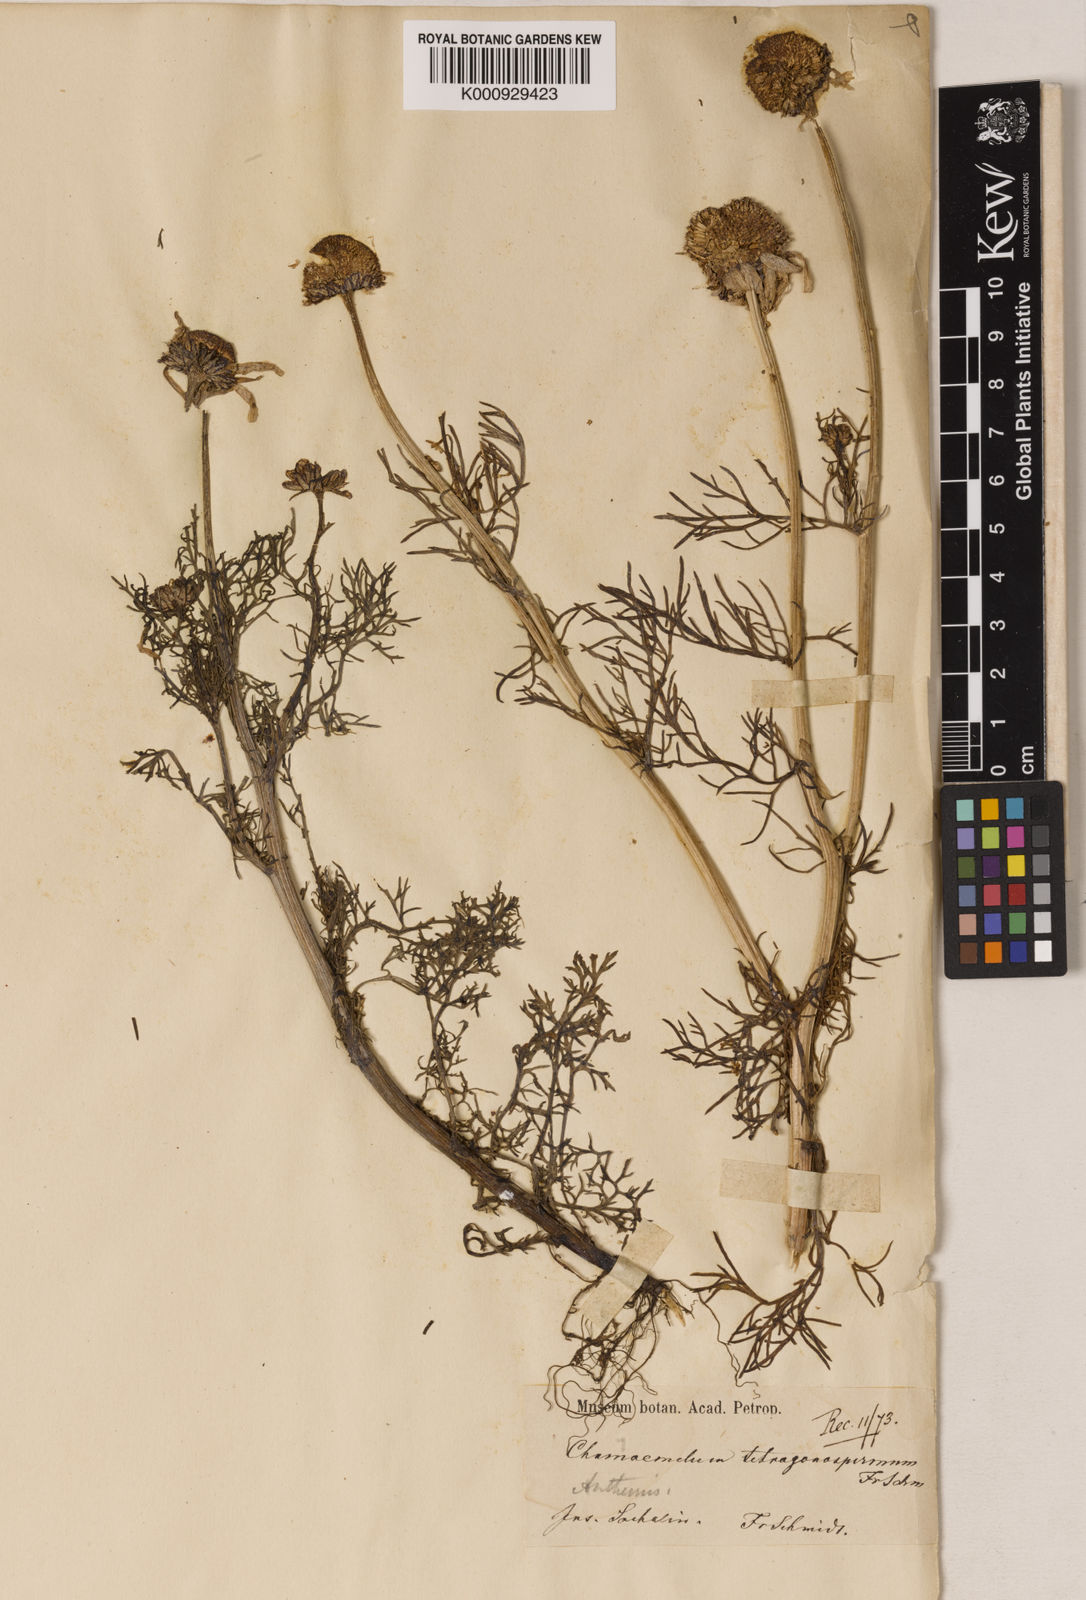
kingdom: Plantae
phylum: Tracheophyta
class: Magnoliopsida
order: Asterales
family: Asteraceae
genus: Tripleurospermum
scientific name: Tripleurospermum tetragonospermum
